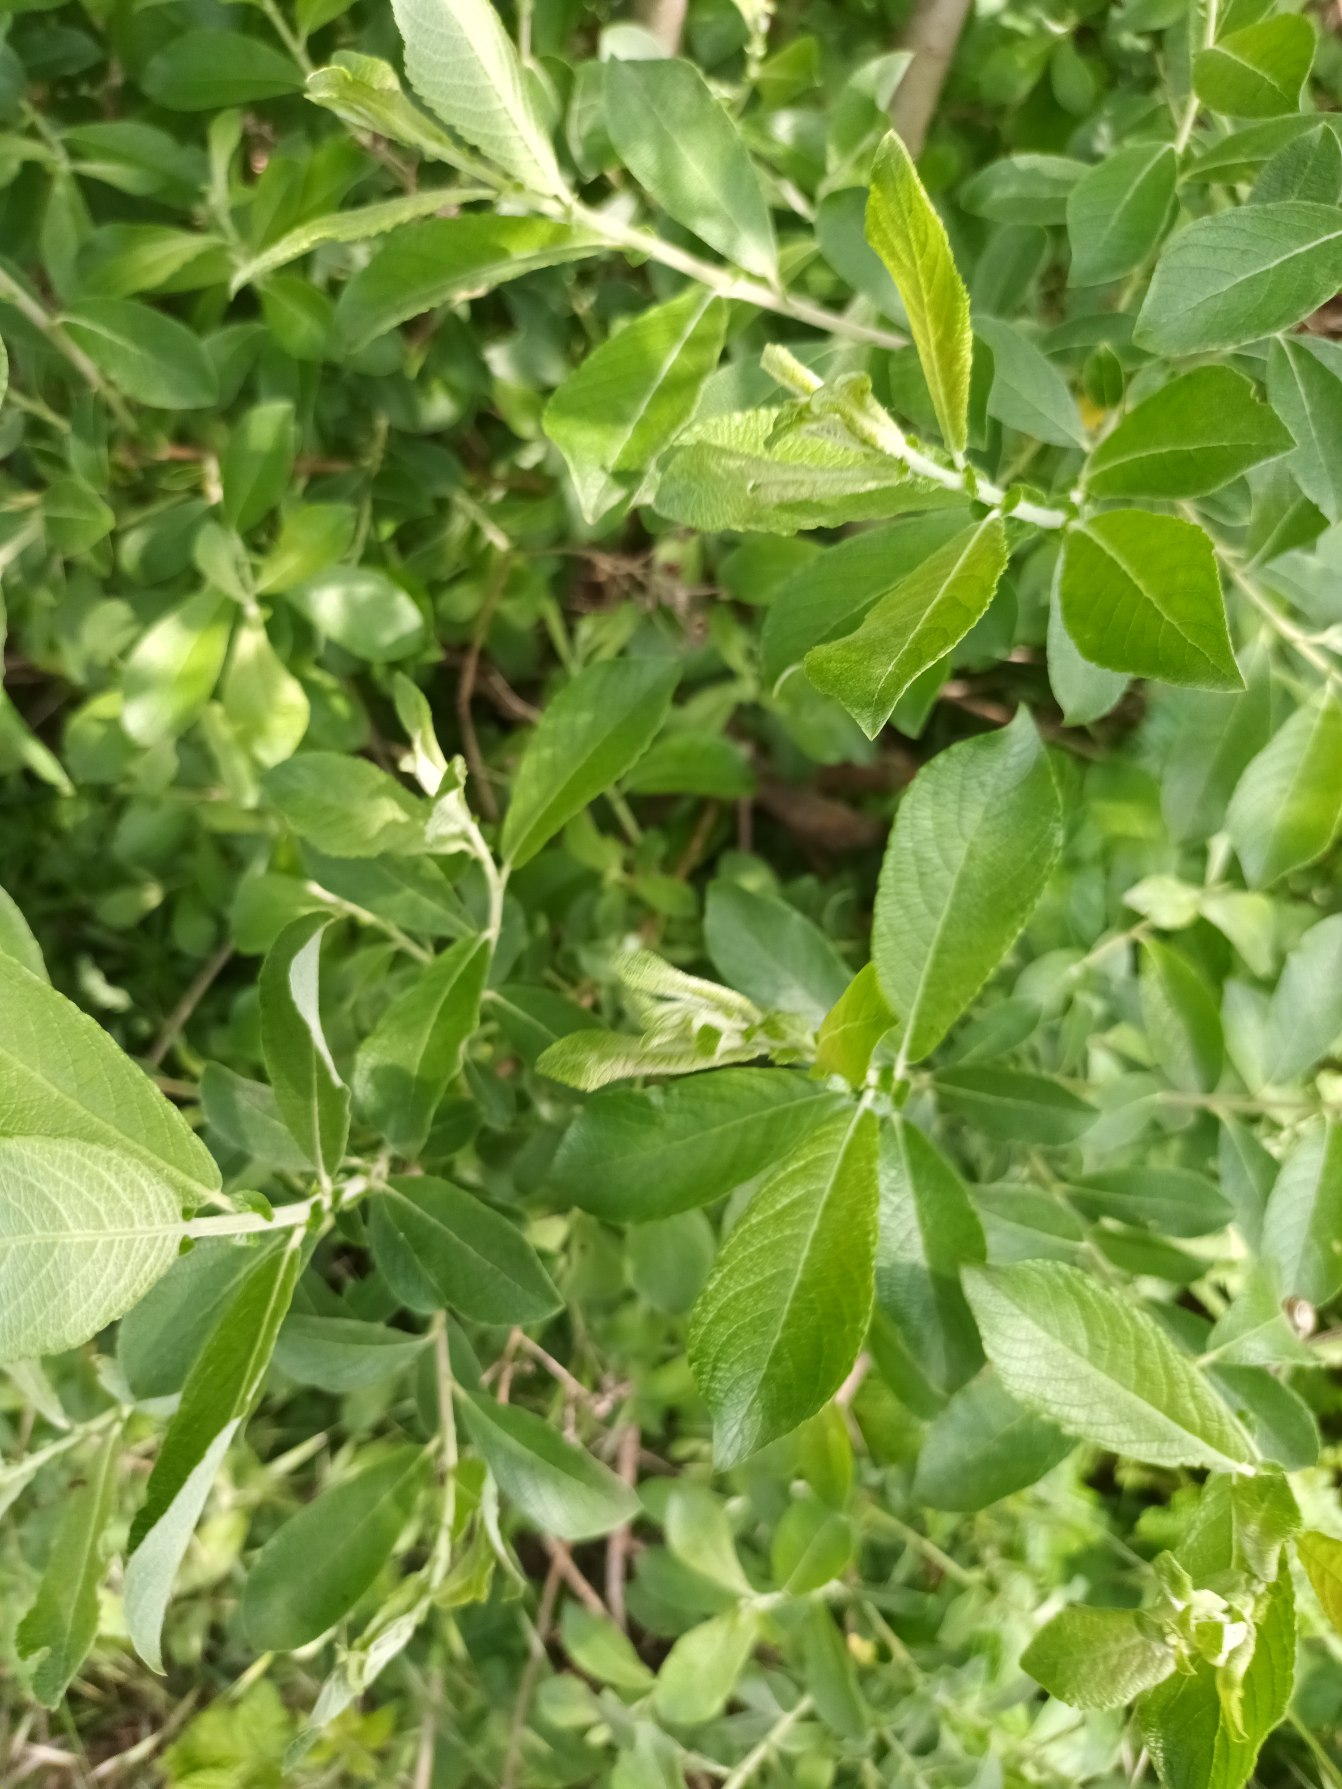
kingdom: Plantae
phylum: Tracheophyta
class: Magnoliopsida
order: Malpighiales
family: Salicaceae
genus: Salix
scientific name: Salix cinerea
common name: Grå-pil
